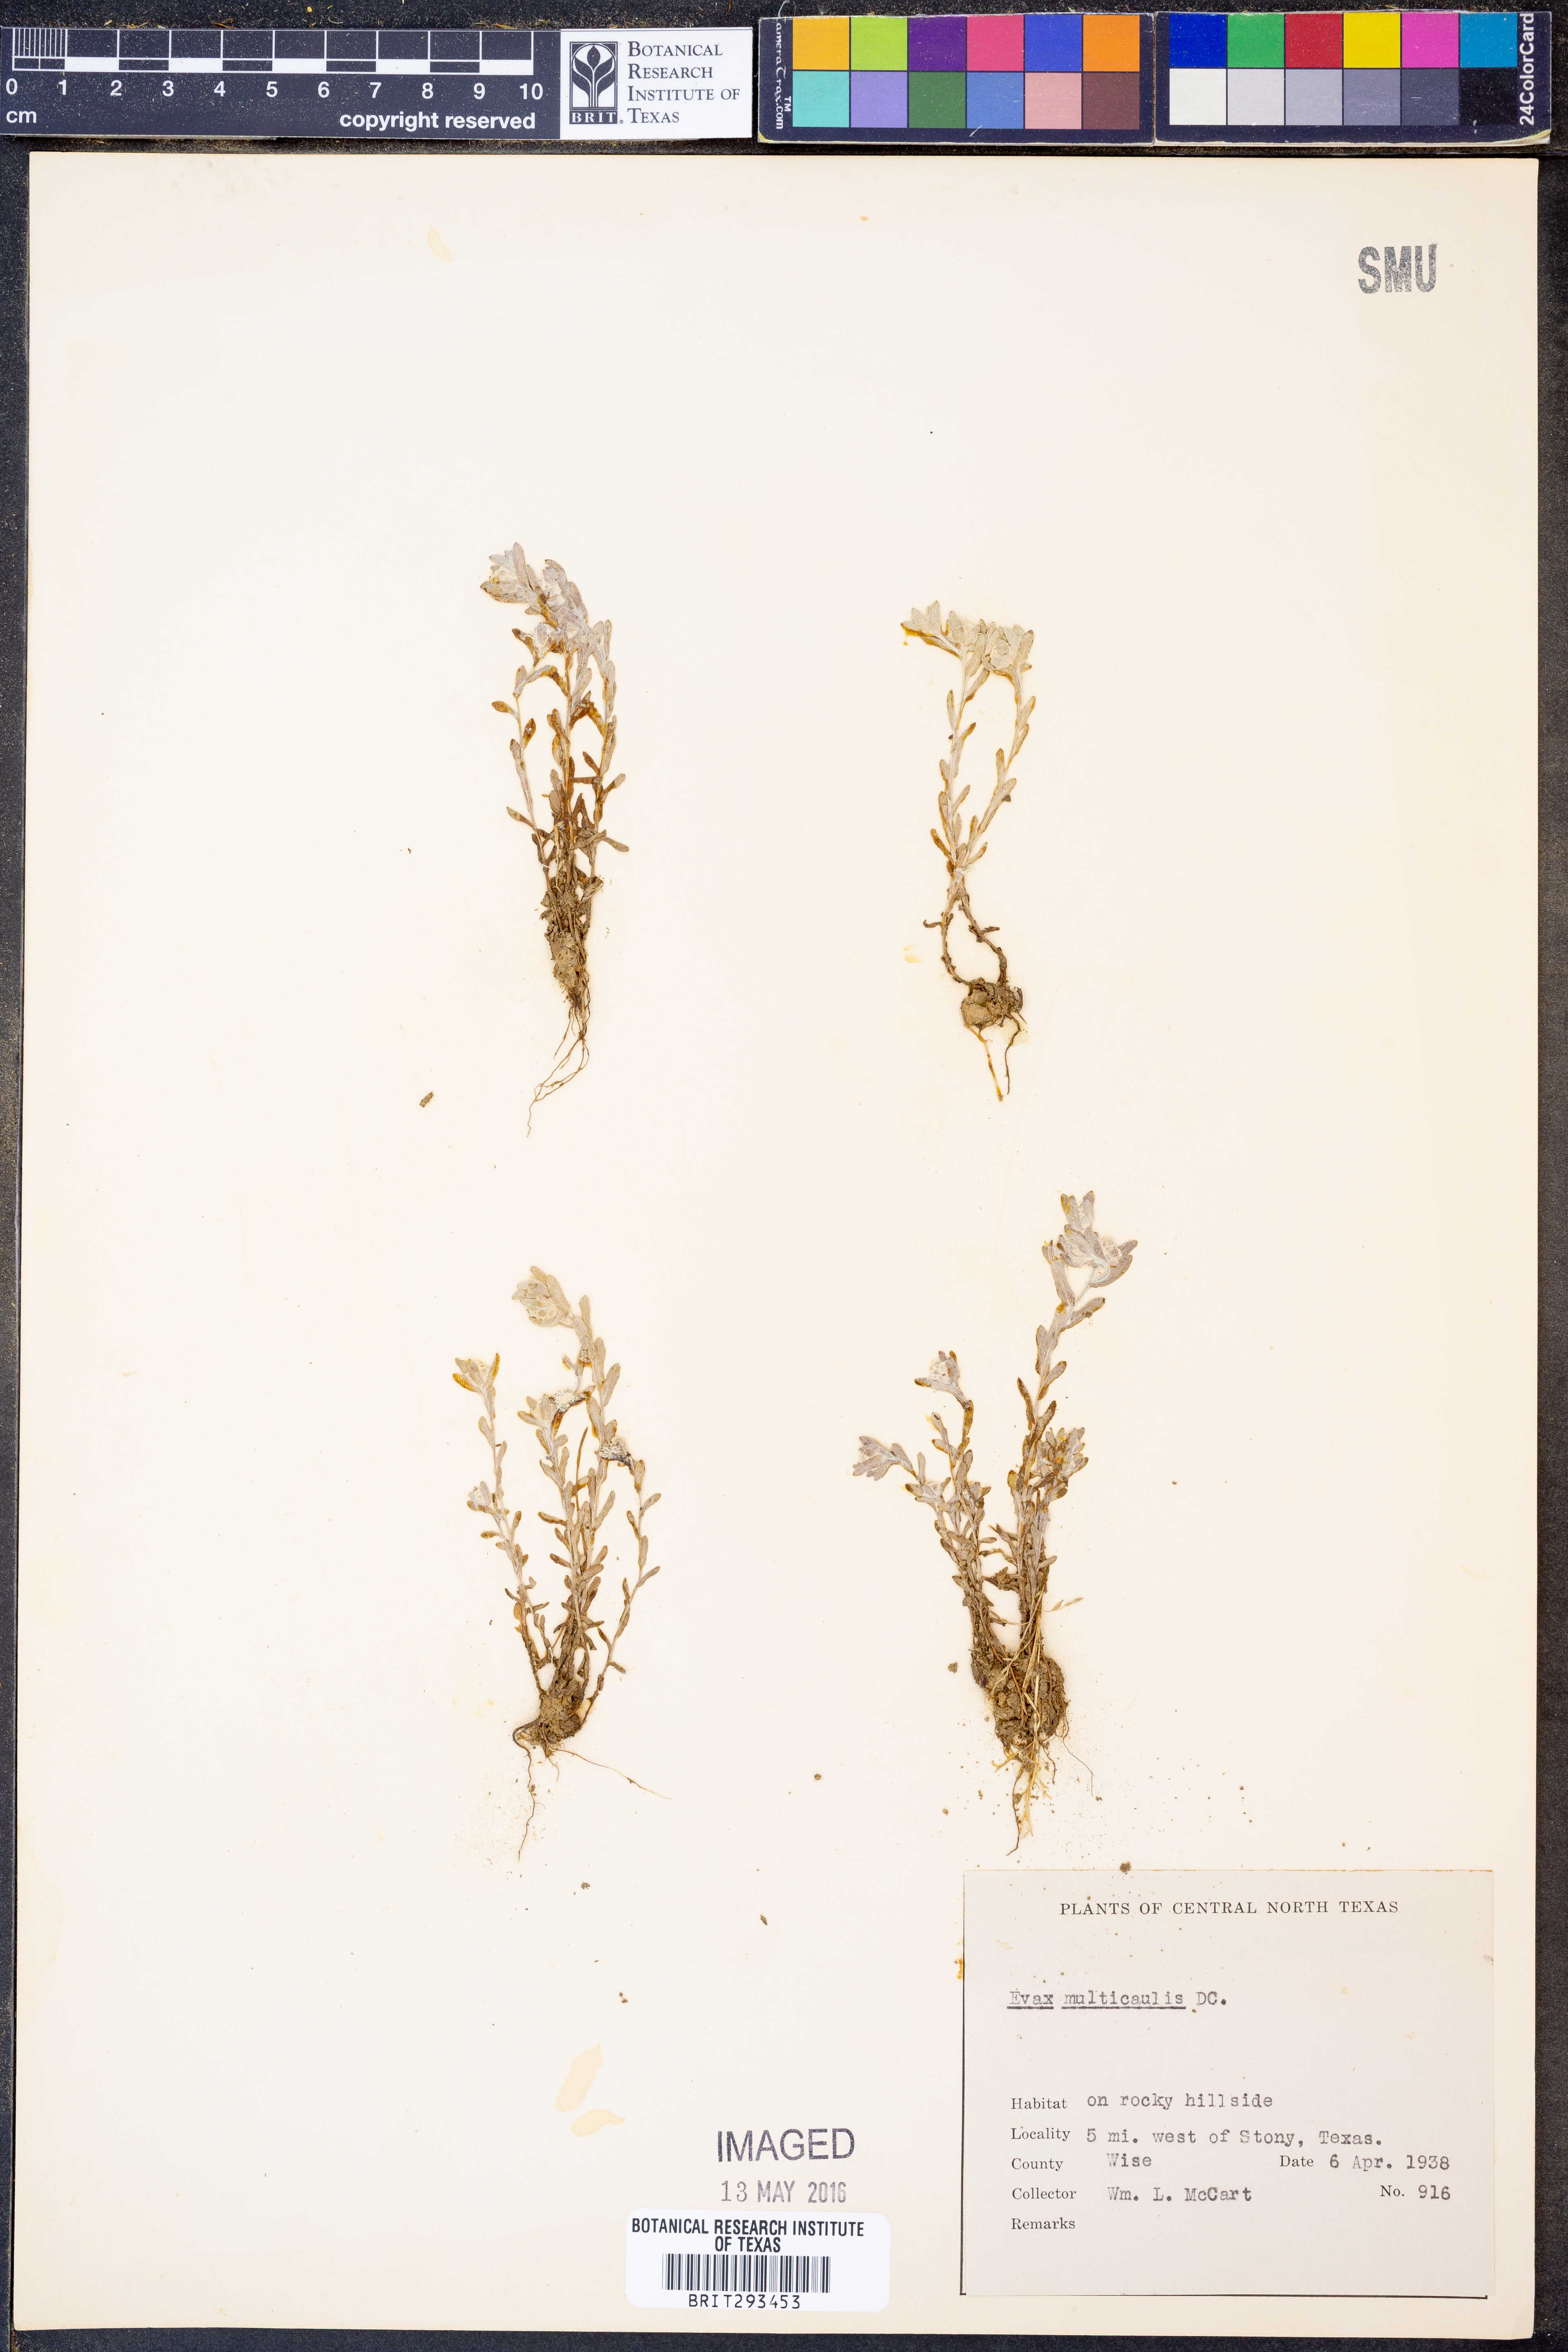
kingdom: Plantae
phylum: Tracheophyta
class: Magnoliopsida
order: Asterales
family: Asteraceae
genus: Diaperia
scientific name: Diaperia verna
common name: Many-stem rabbit-tobacco
